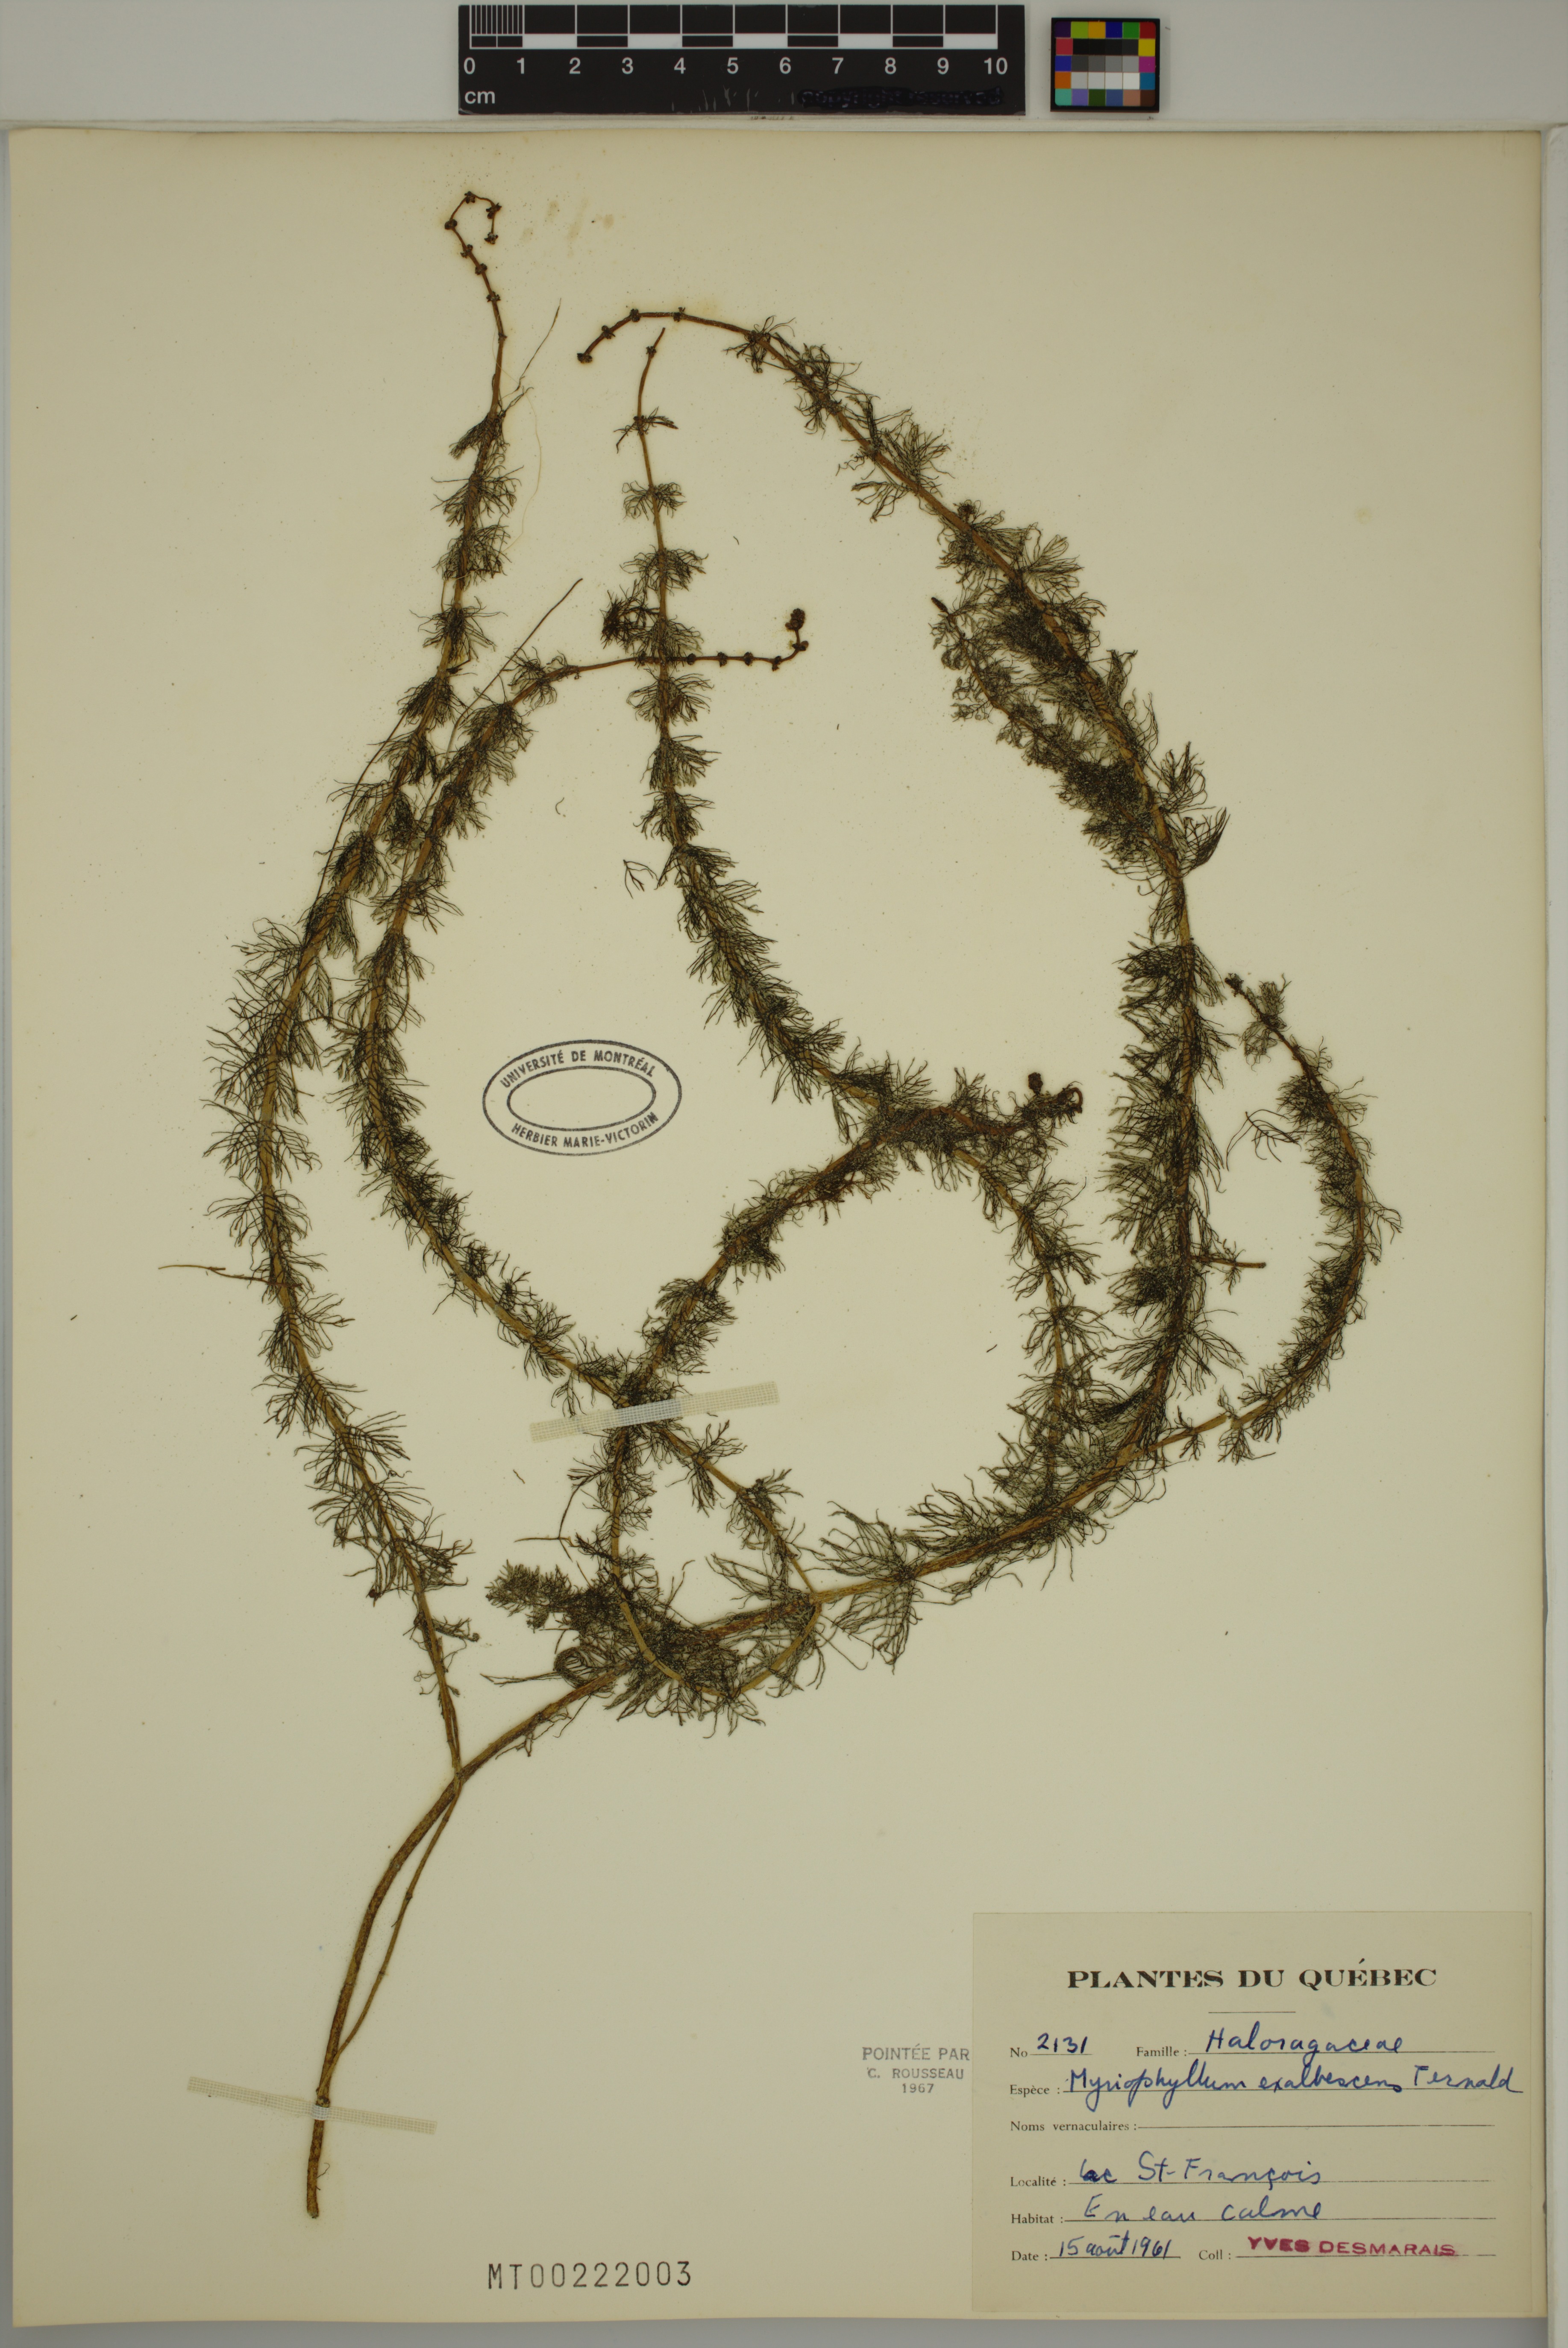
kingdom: Plantae
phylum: Tracheophyta
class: Magnoliopsida
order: Saxifragales
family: Haloragaceae
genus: Myriophyllum
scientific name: Myriophyllum sibiricum
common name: Siberian water-milfoil
